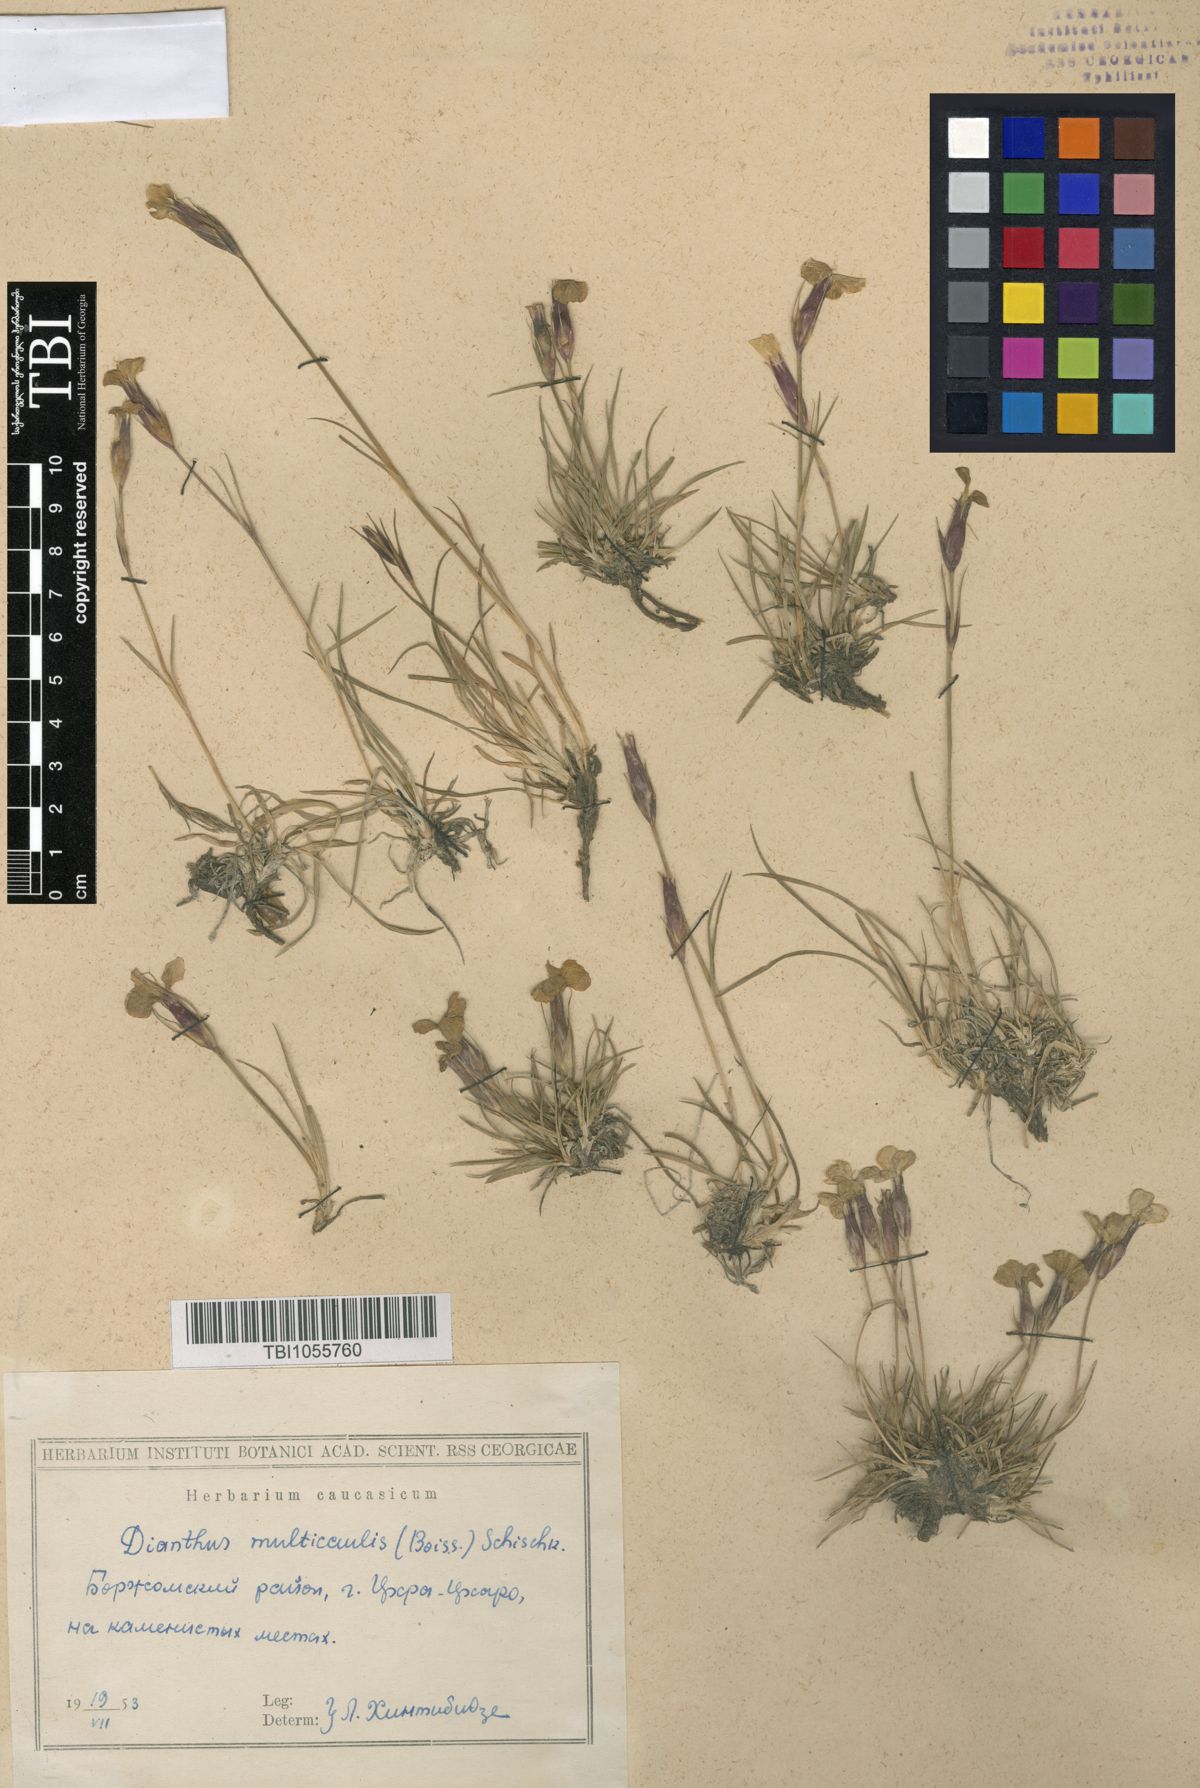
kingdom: Plantae
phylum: Tracheophyta
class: Magnoliopsida
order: Caryophyllales
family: Caryophyllaceae
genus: Dianthus
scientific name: Dianthus cretaceus
